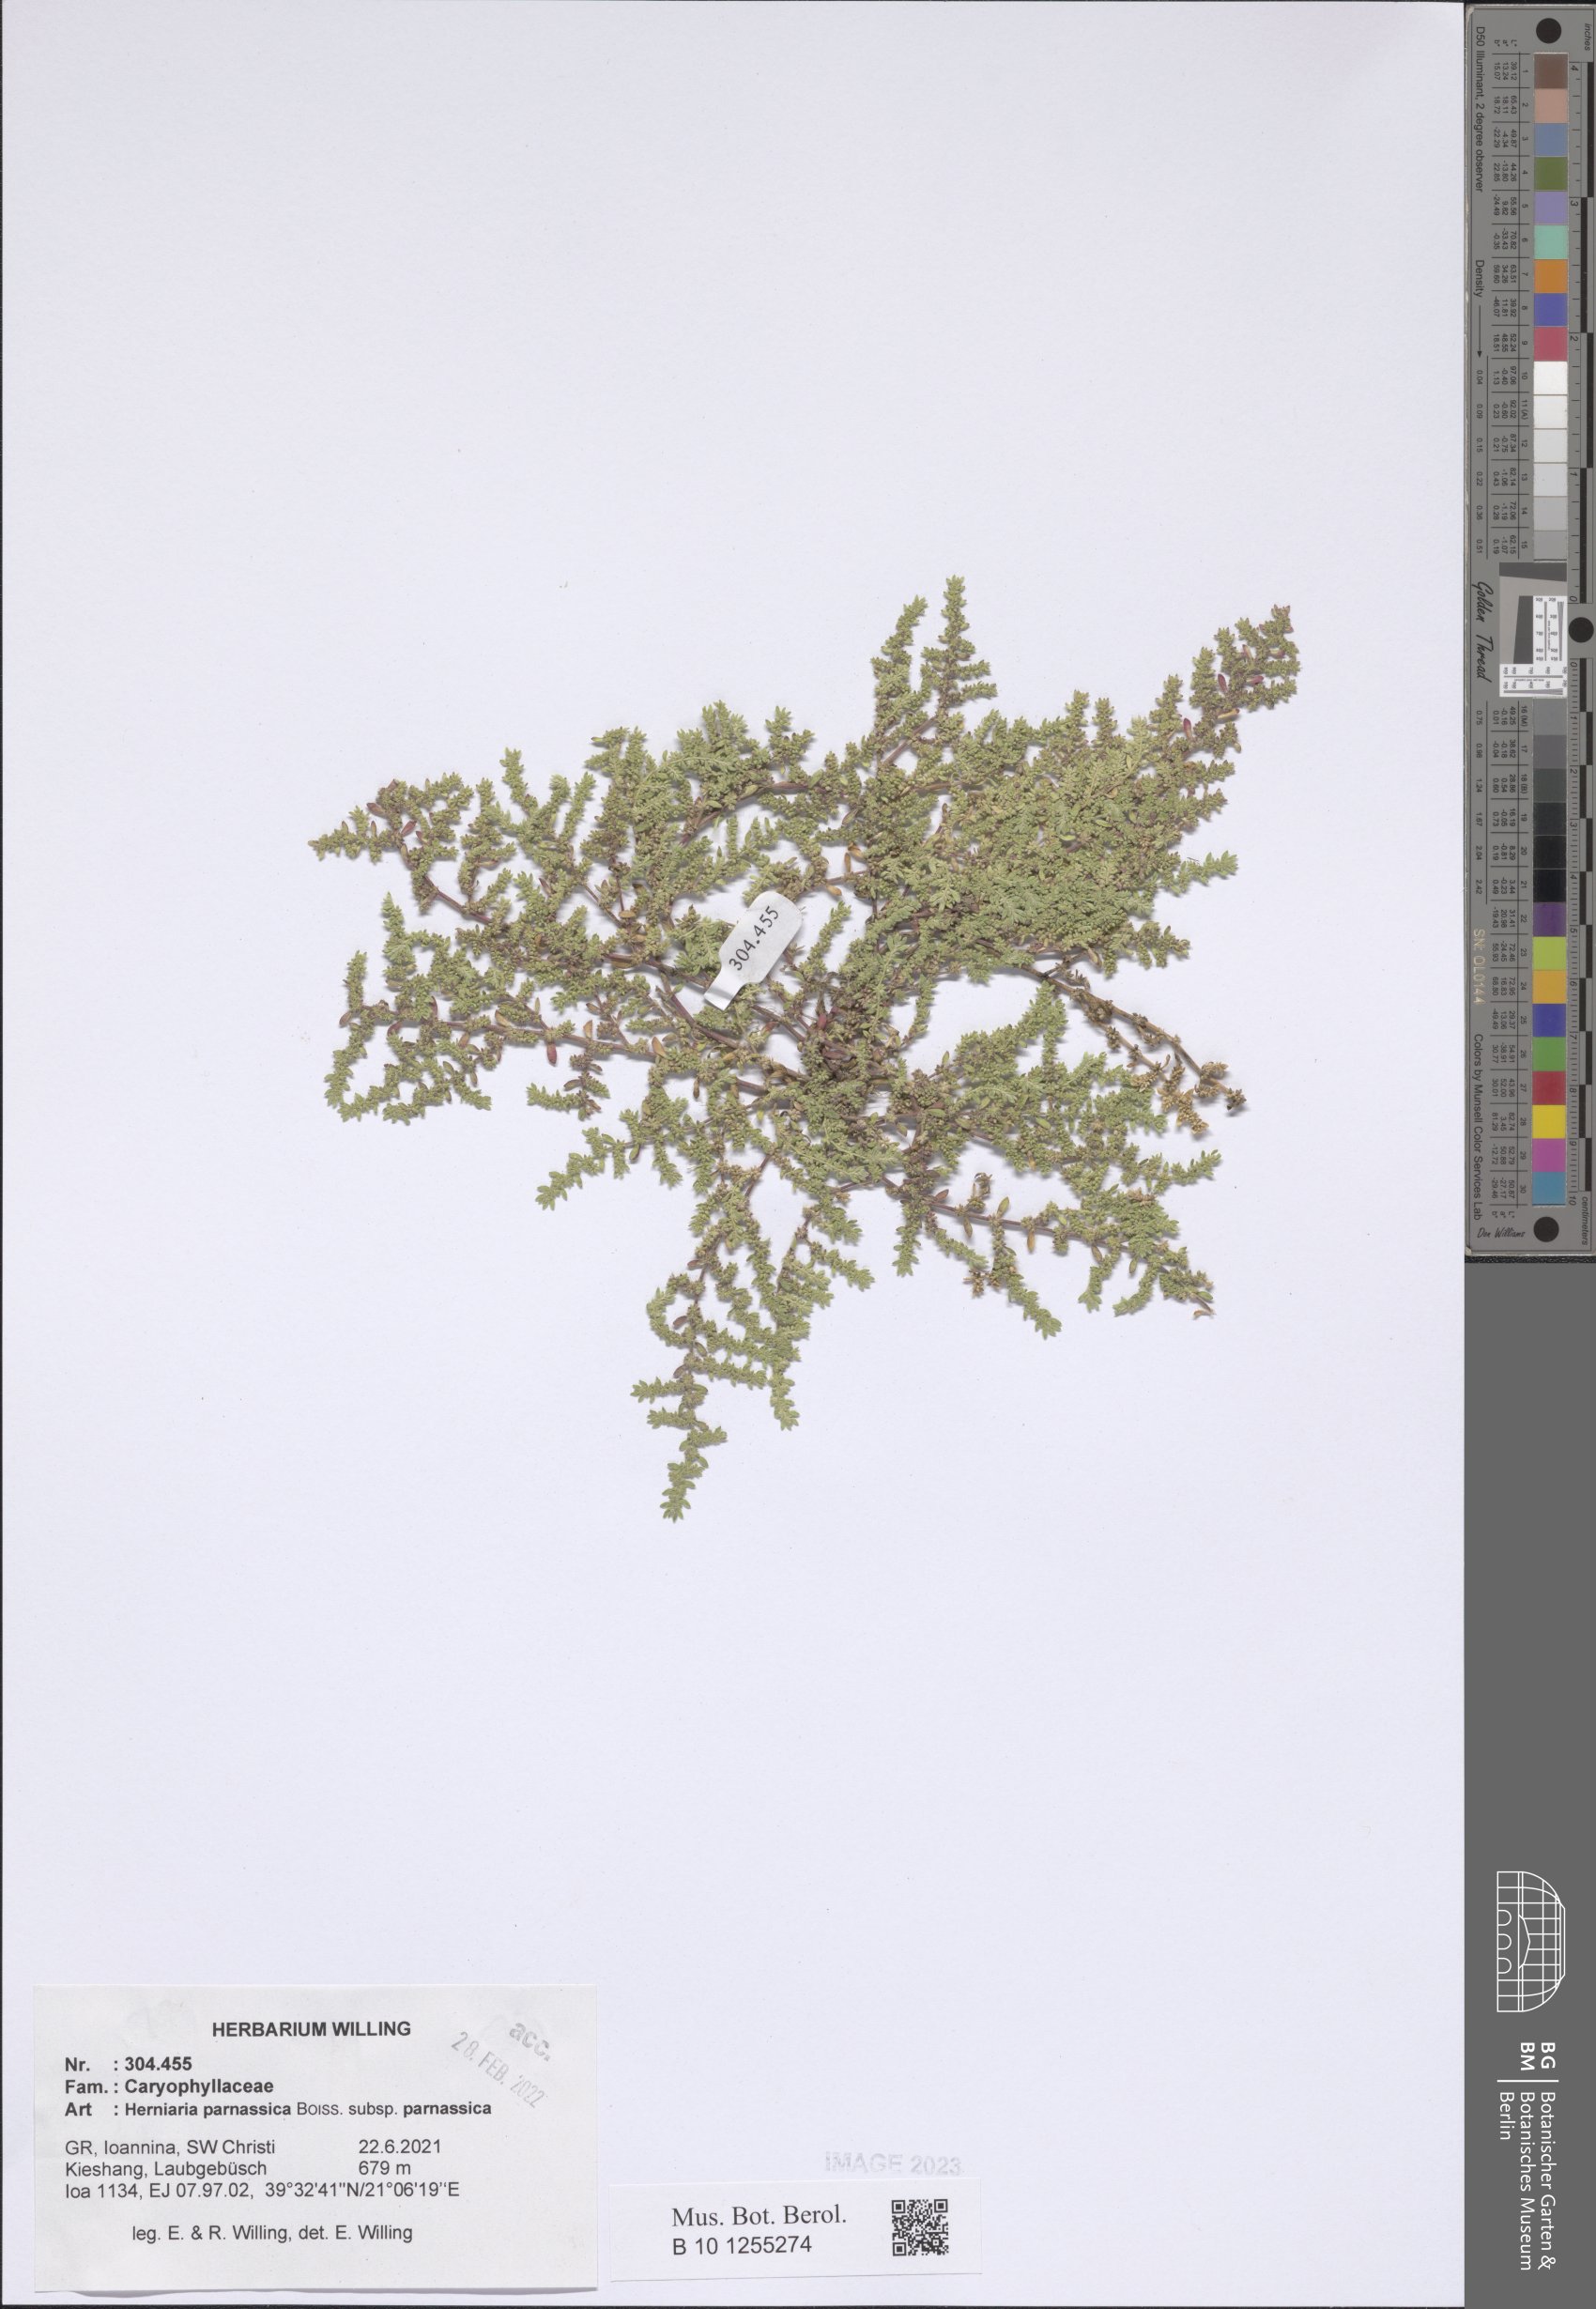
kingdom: Plantae
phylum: Tracheophyta
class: Magnoliopsida
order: Caryophyllales
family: Caryophyllaceae
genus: Herniaria
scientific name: Herniaria parnassica
